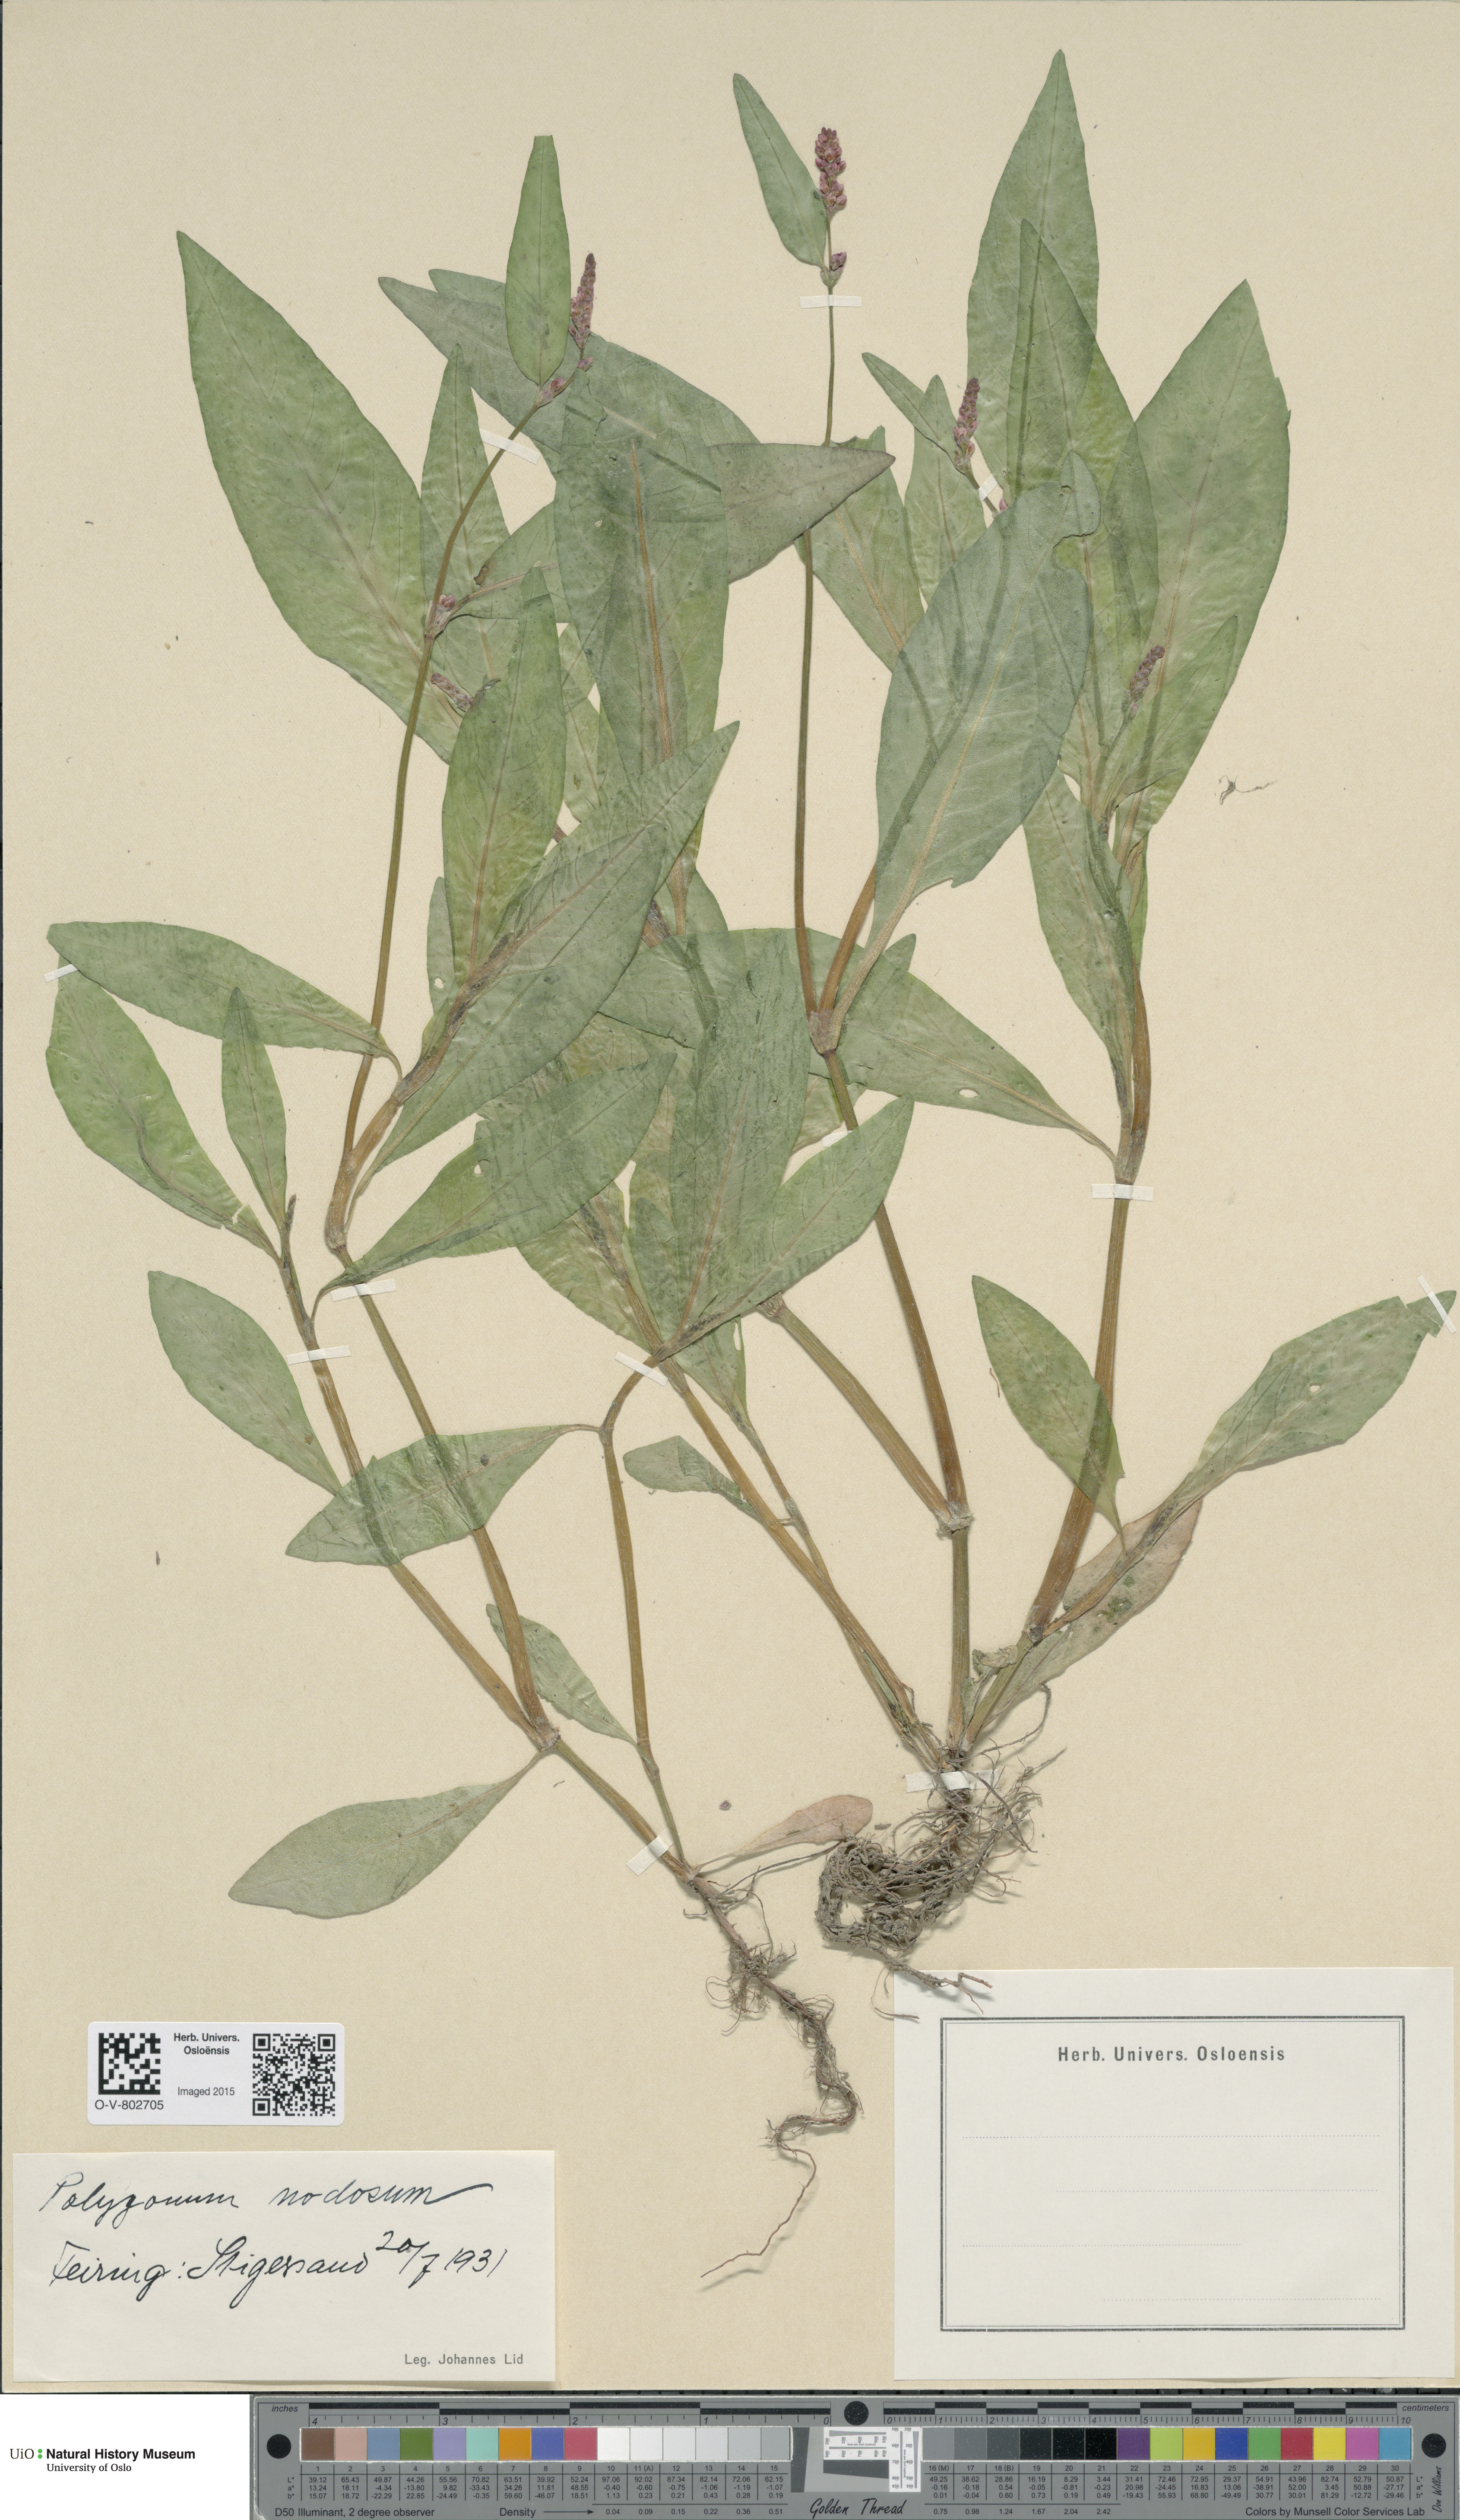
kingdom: Plantae
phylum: Tracheophyta
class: Magnoliopsida
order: Caryophyllales
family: Polygonaceae
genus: Persicaria
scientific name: Persicaria lapathifolia
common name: Curlytop knotweed
